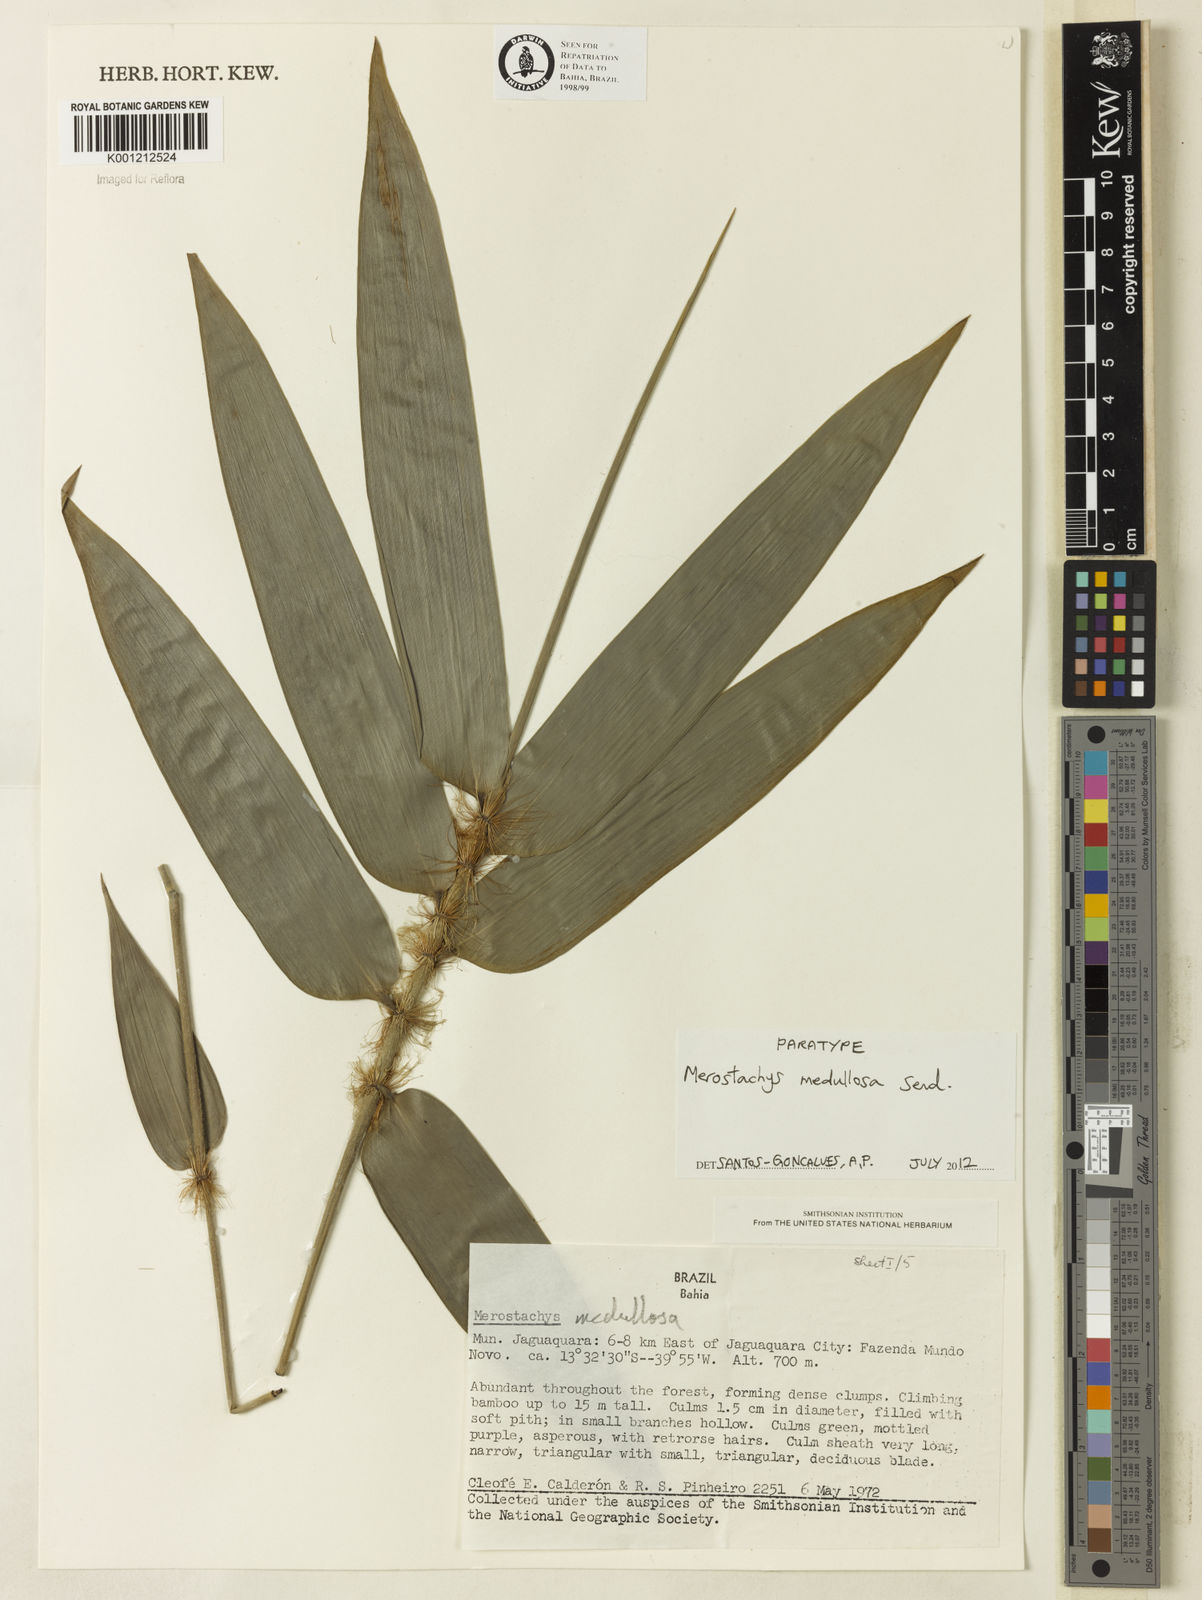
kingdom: Plantae
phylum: Tracheophyta
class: Liliopsida
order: Poales
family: Poaceae
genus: Merostachys
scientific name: Merostachys medullosa
